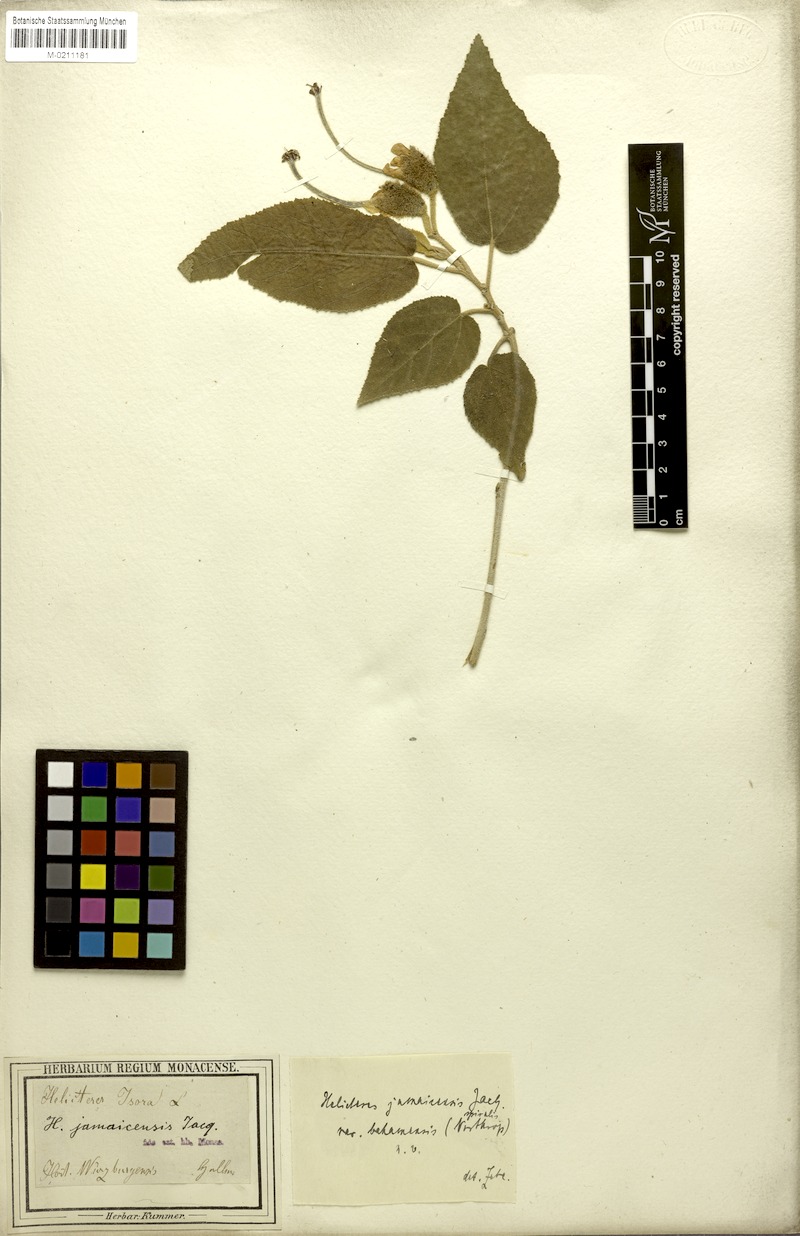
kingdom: Plantae
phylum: Tracheophyta
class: Magnoliopsida
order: Malvales
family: Malvaceae
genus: Helicteres
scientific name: Helicteres jamaicensis
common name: Cowbush
